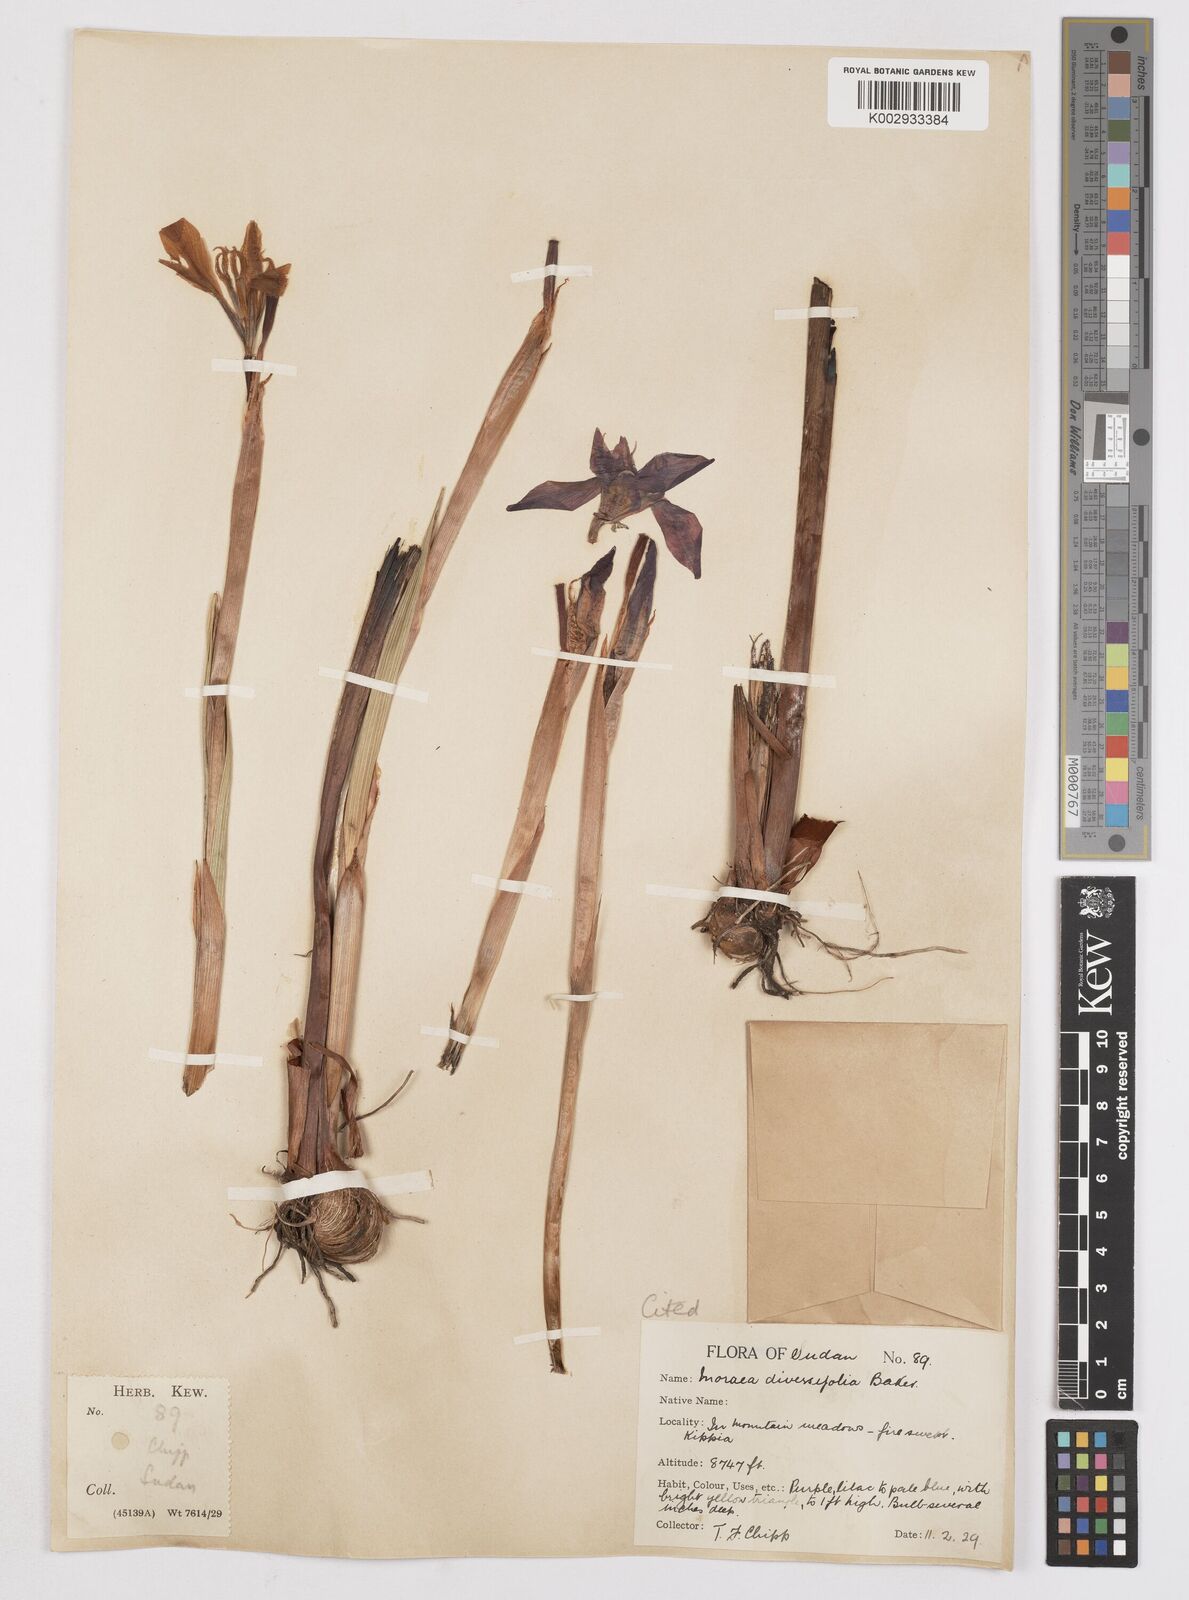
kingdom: Plantae
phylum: Tracheophyta
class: Liliopsida
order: Asparagales
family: Iridaceae
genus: Moraea
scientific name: Moraea schimperi
